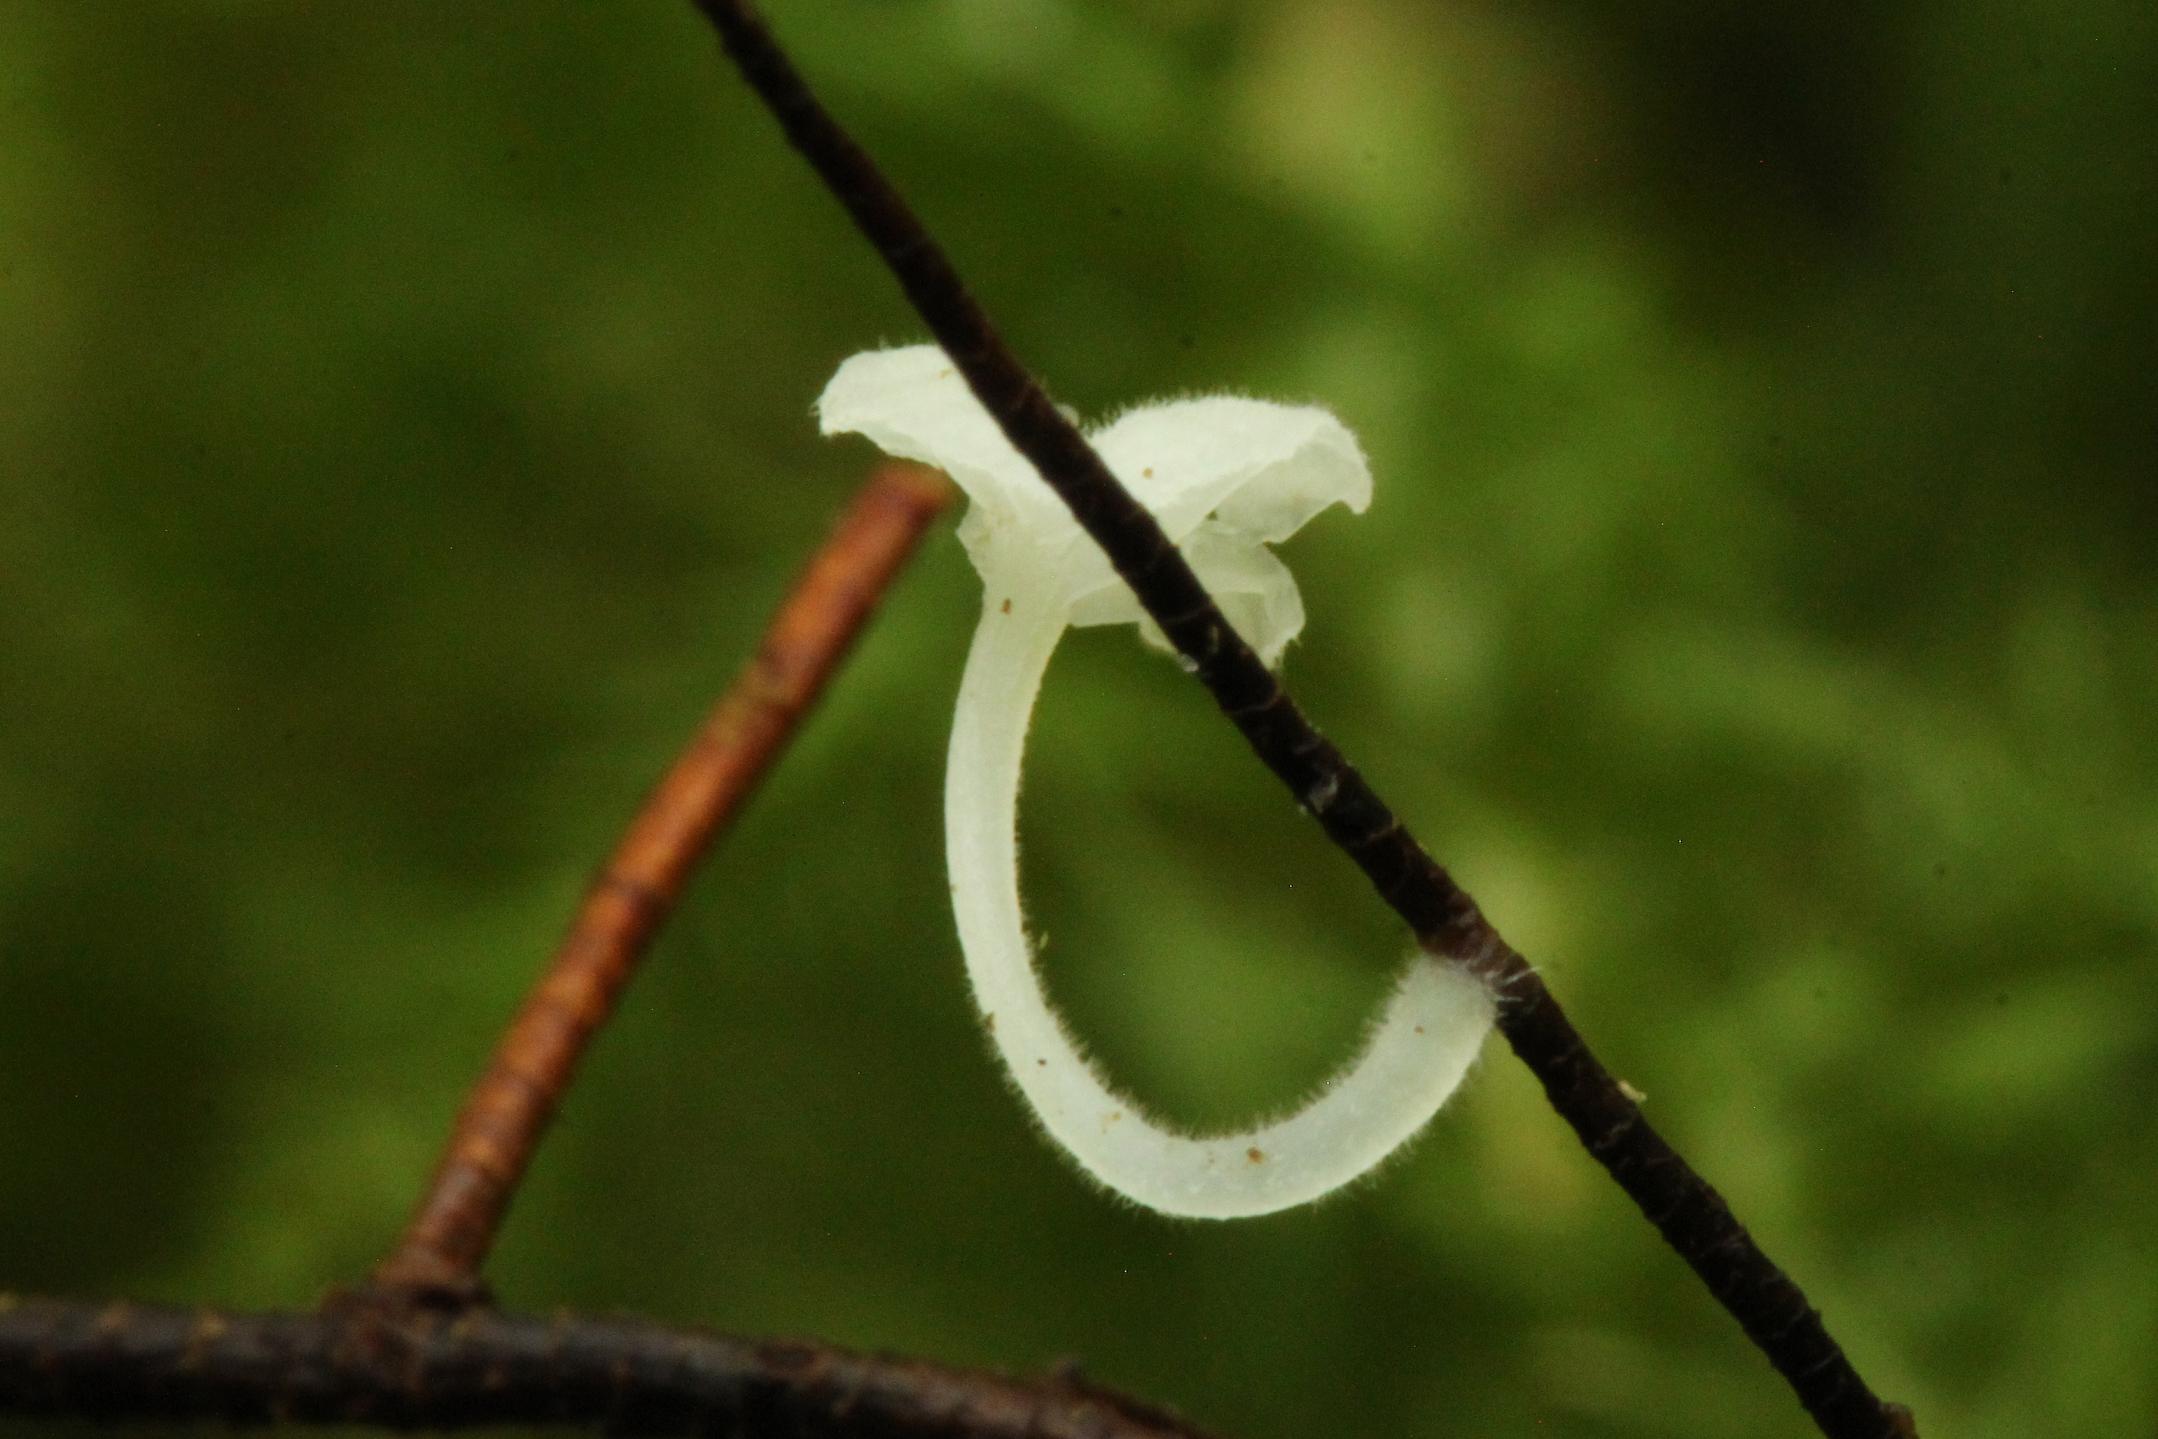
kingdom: Fungi
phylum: Basidiomycota
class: Agaricomycetes
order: Agaricales
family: Mycenaceae
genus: Hemimycena
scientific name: Hemimycena substellata
